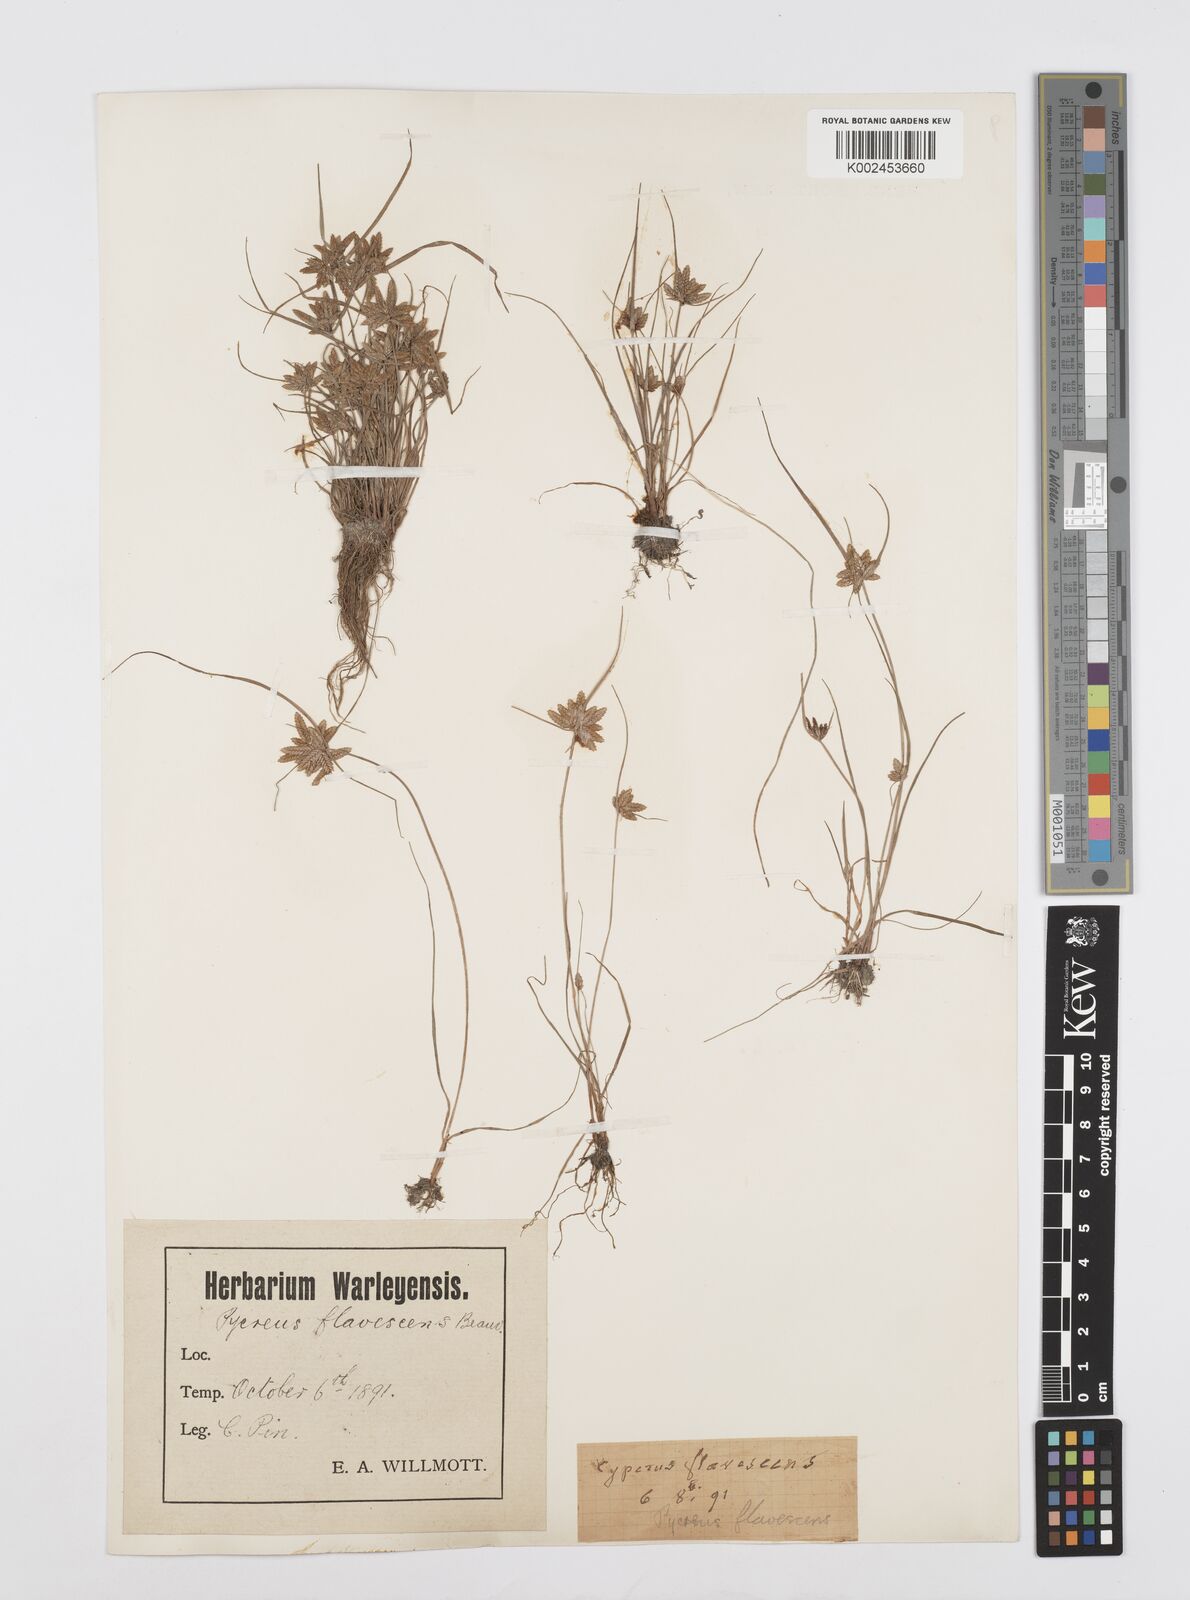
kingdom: Plantae
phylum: Tracheophyta
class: Liliopsida
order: Poales
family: Cyperaceae
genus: Cyperus
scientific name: Cyperus flavescens
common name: Yellow galingale
